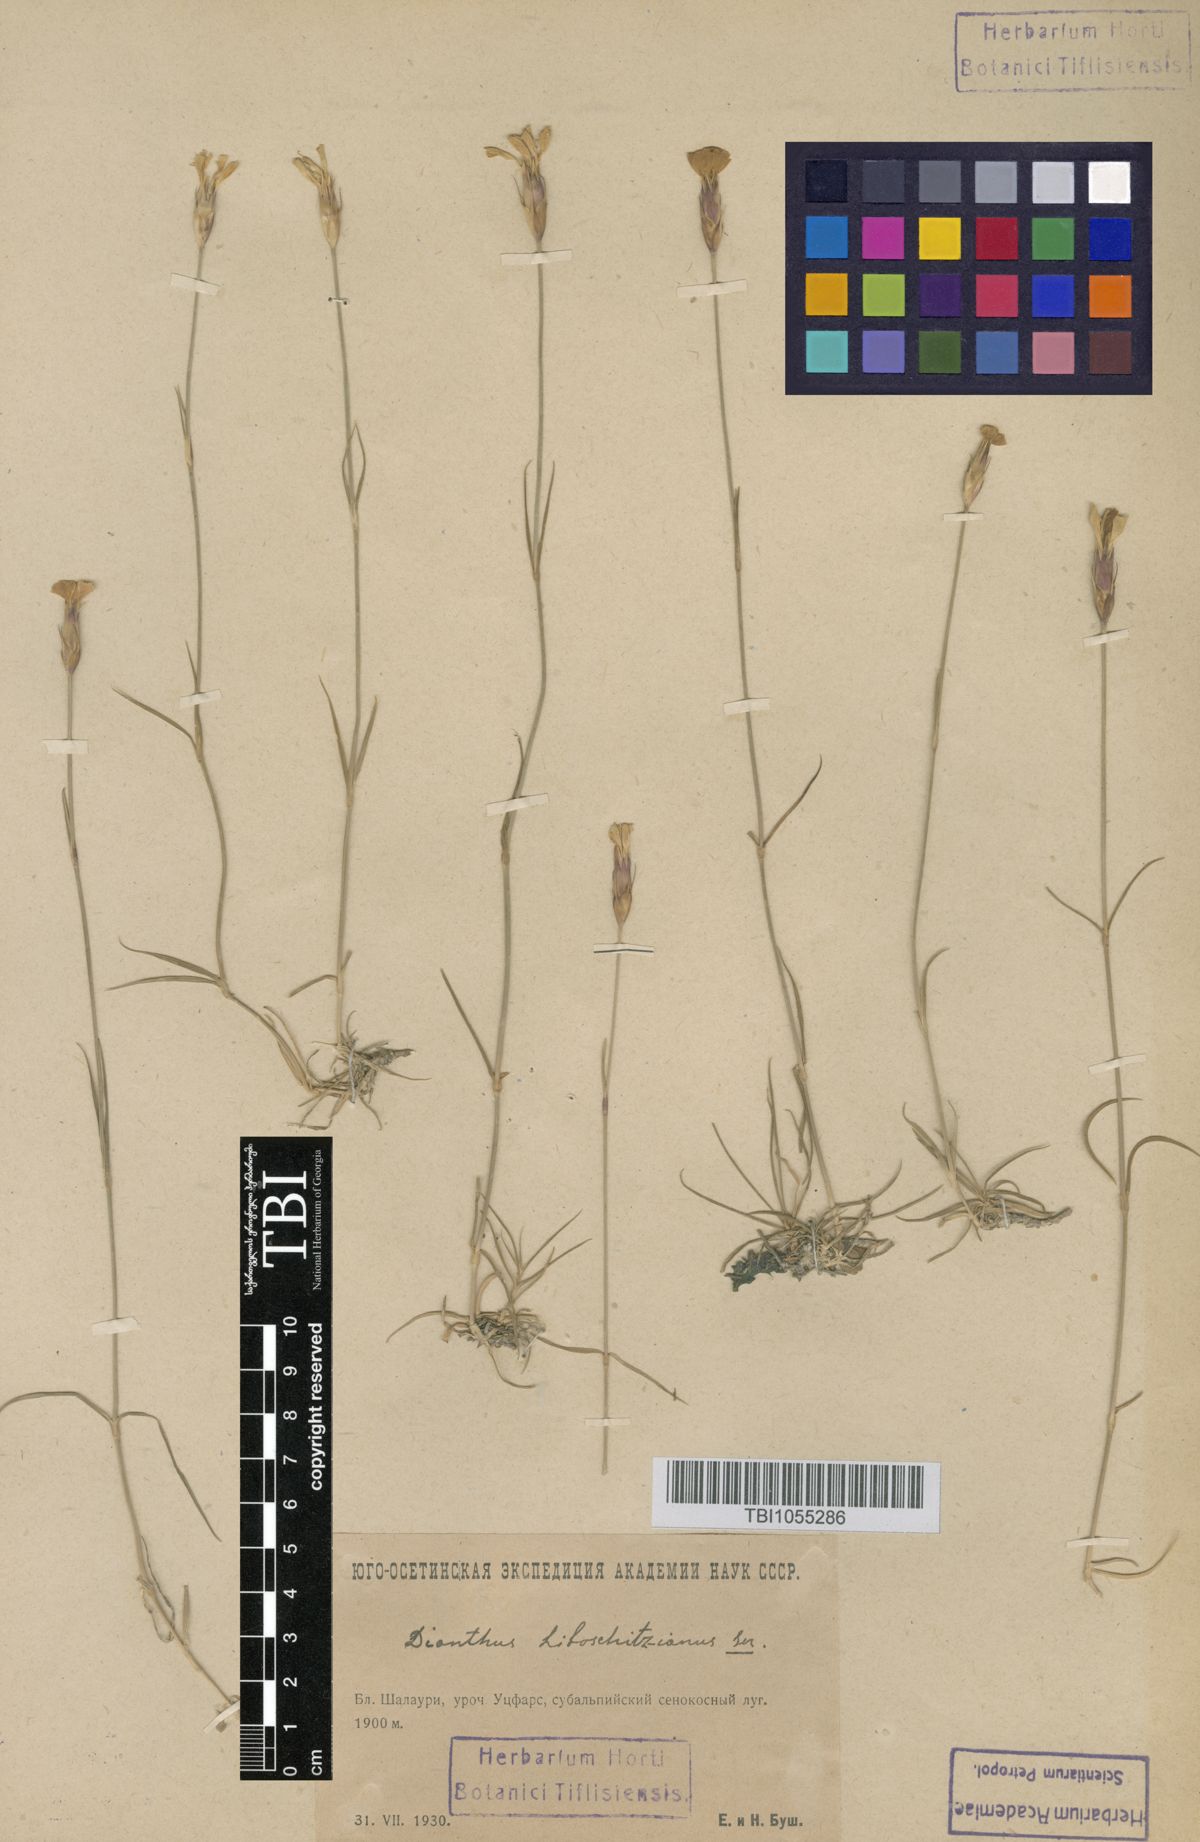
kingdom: Plantae
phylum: Tracheophyta
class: Magnoliopsida
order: Caryophyllales
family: Caryophyllaceae
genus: Dianthus
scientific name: Dianthus cretaceus
